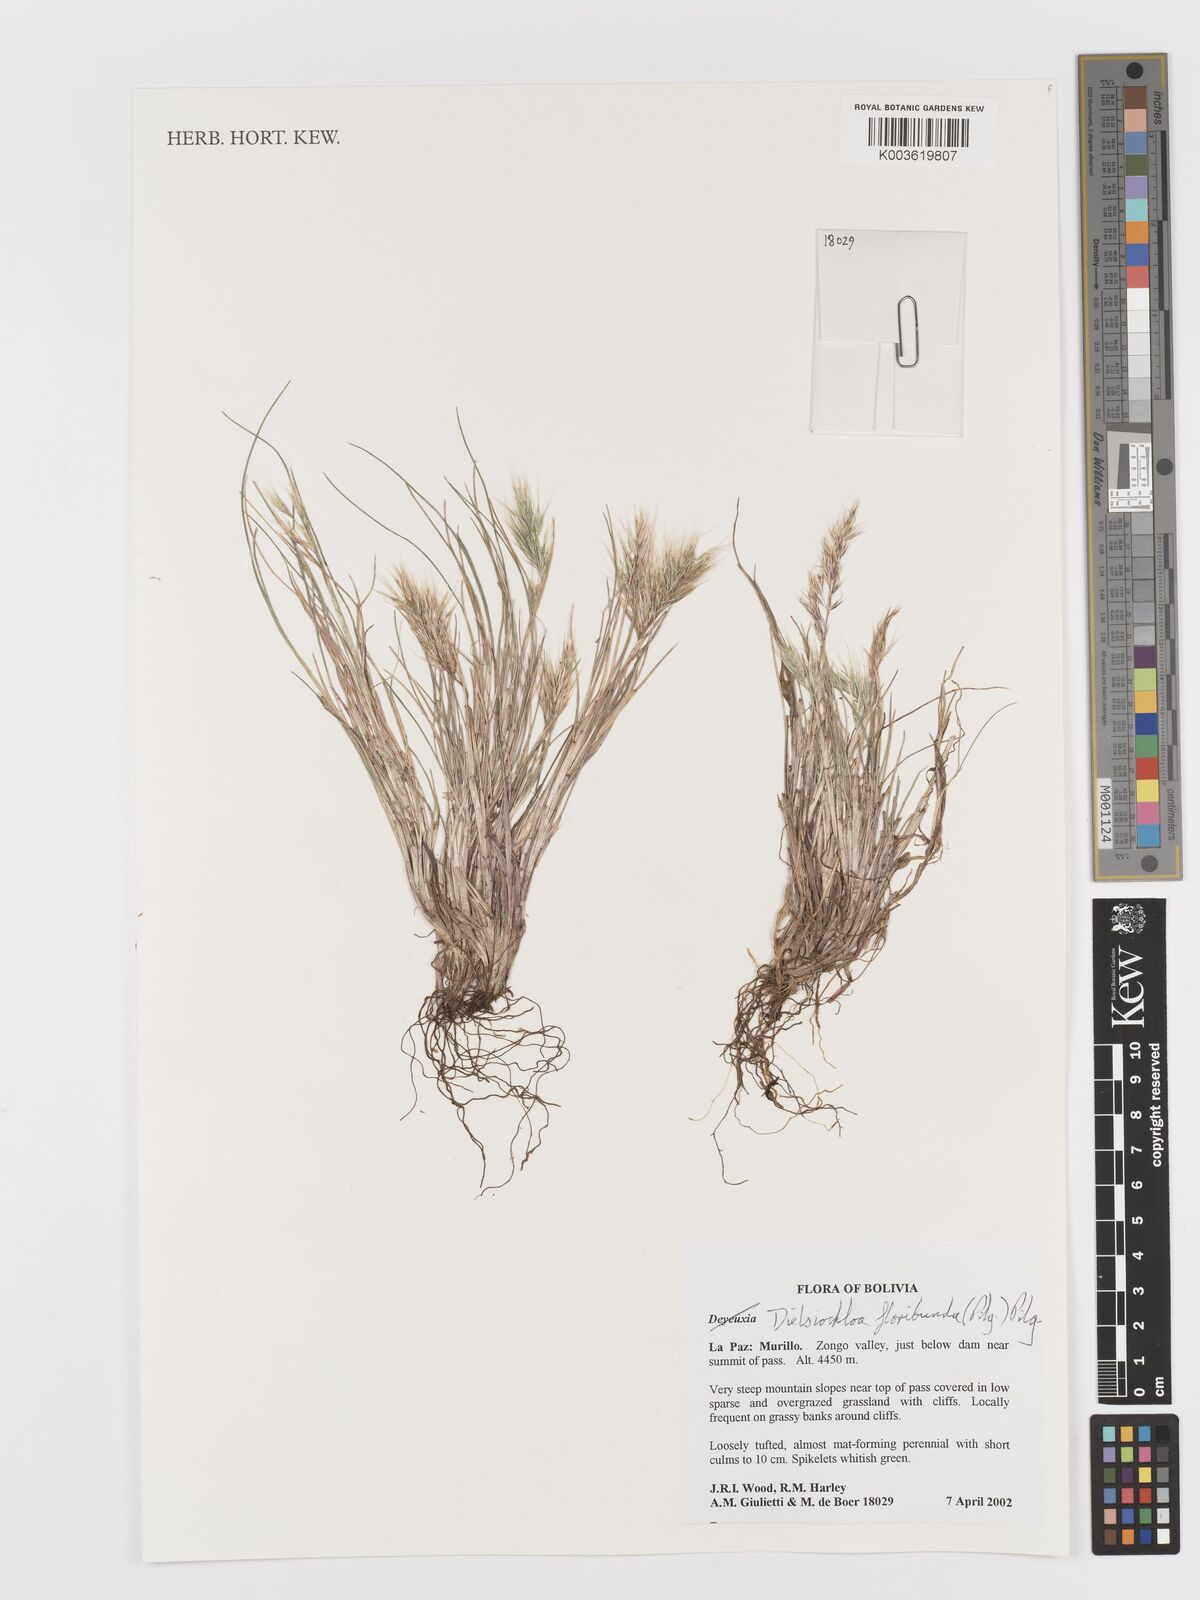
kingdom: Plantae
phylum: Tracheophyta
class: Liliopsida
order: Poales
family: Poaceae
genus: Festuca
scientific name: Festuca floribunda
